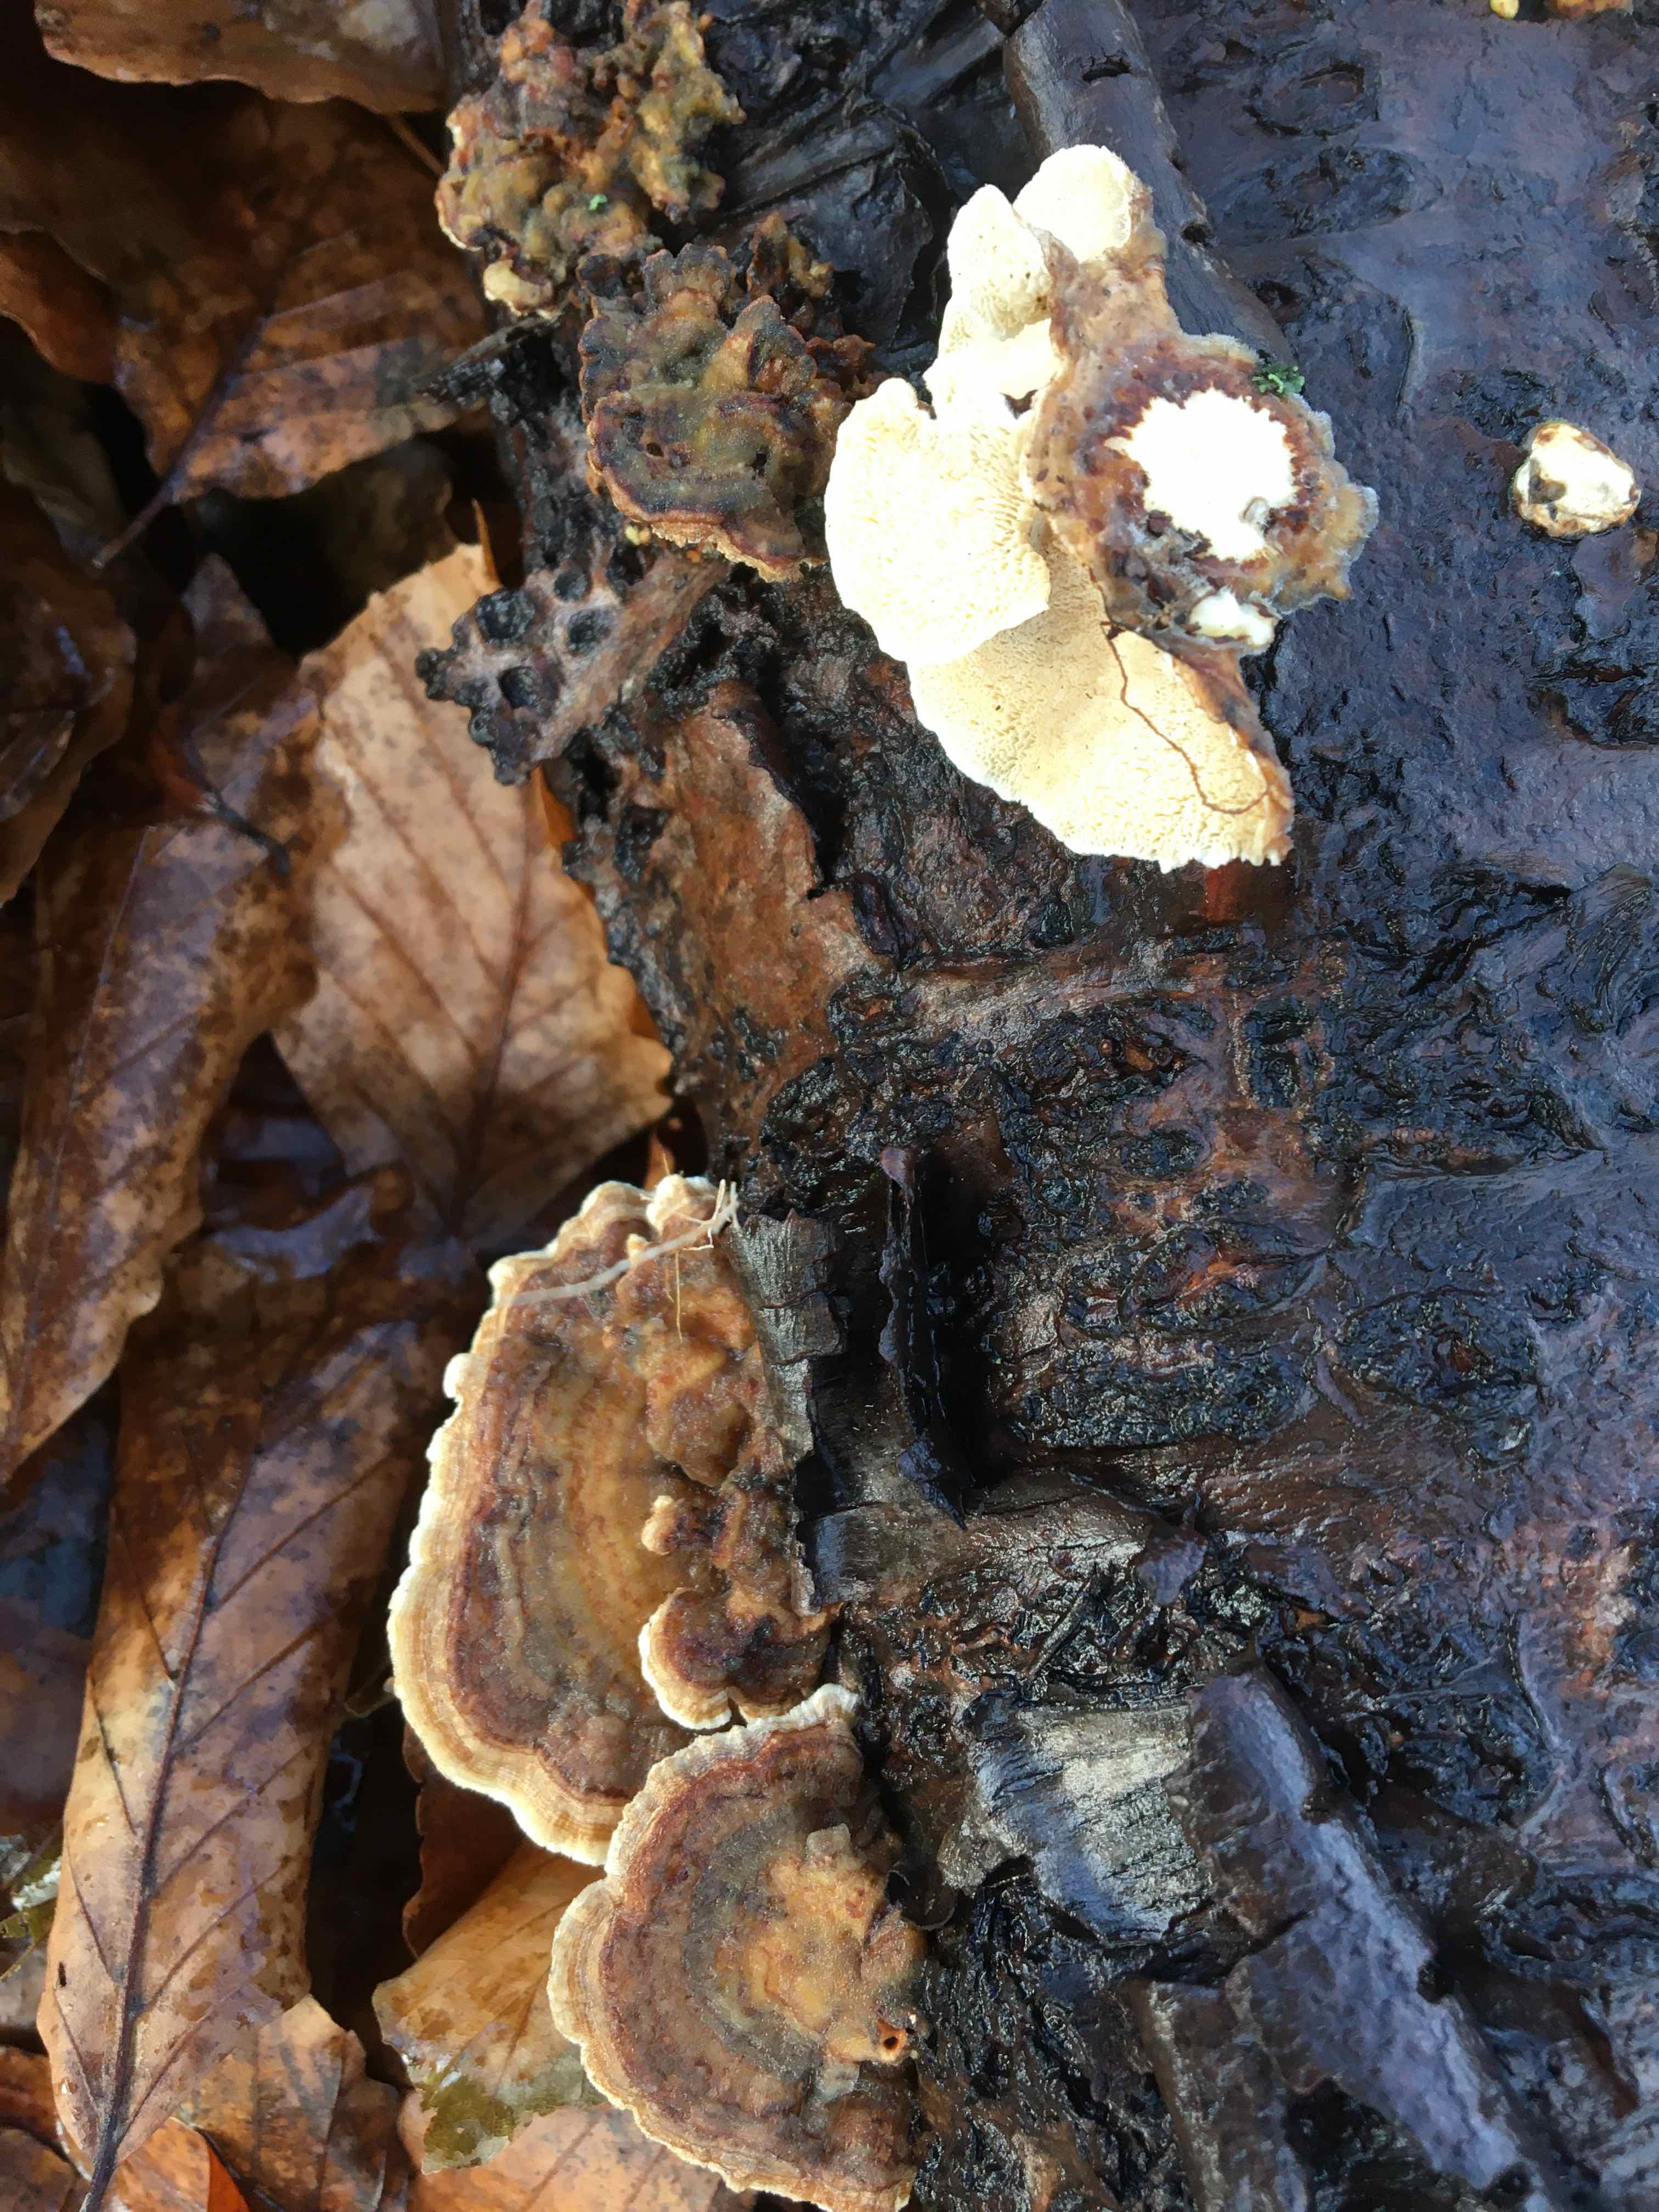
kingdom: Fungi
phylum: Basidiomycota
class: Agaricomycetes
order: Polyporales
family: Polyporaceae
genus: Trametes
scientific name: Trametes versicolor
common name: broget læderporesvamp
